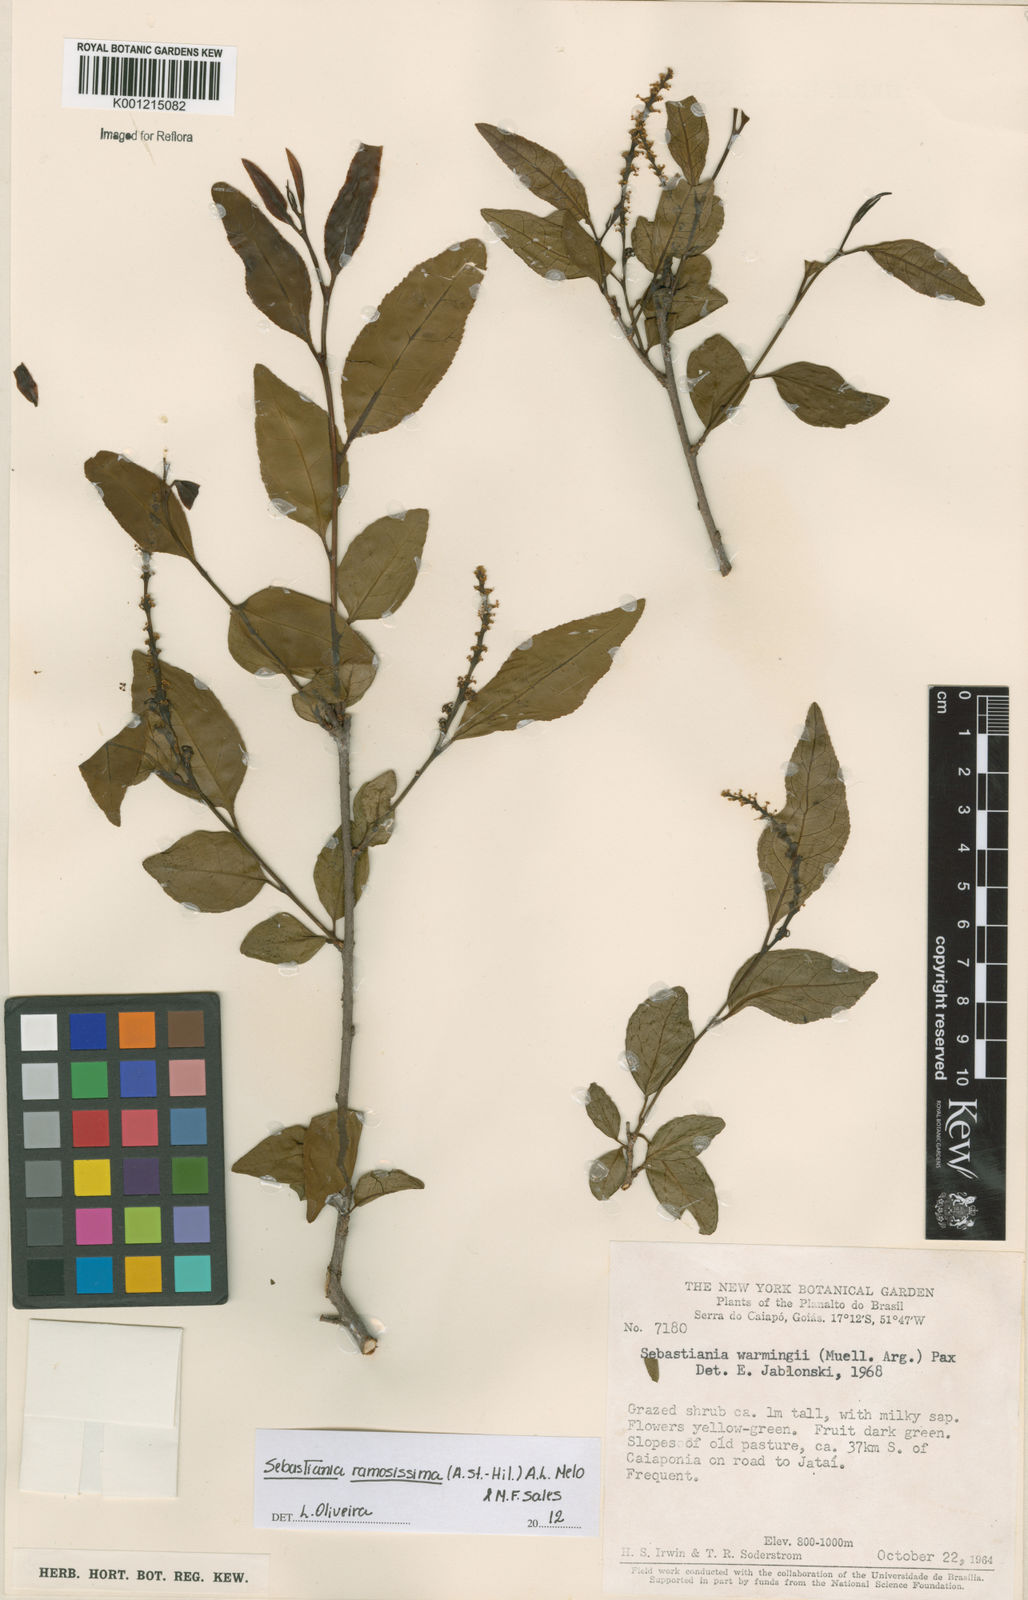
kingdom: Plantae
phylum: Tracheophyta
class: Magnoliopsida
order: Malpighiales
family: Euphorbiaceae
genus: Sebastiania
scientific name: Sebastiania
